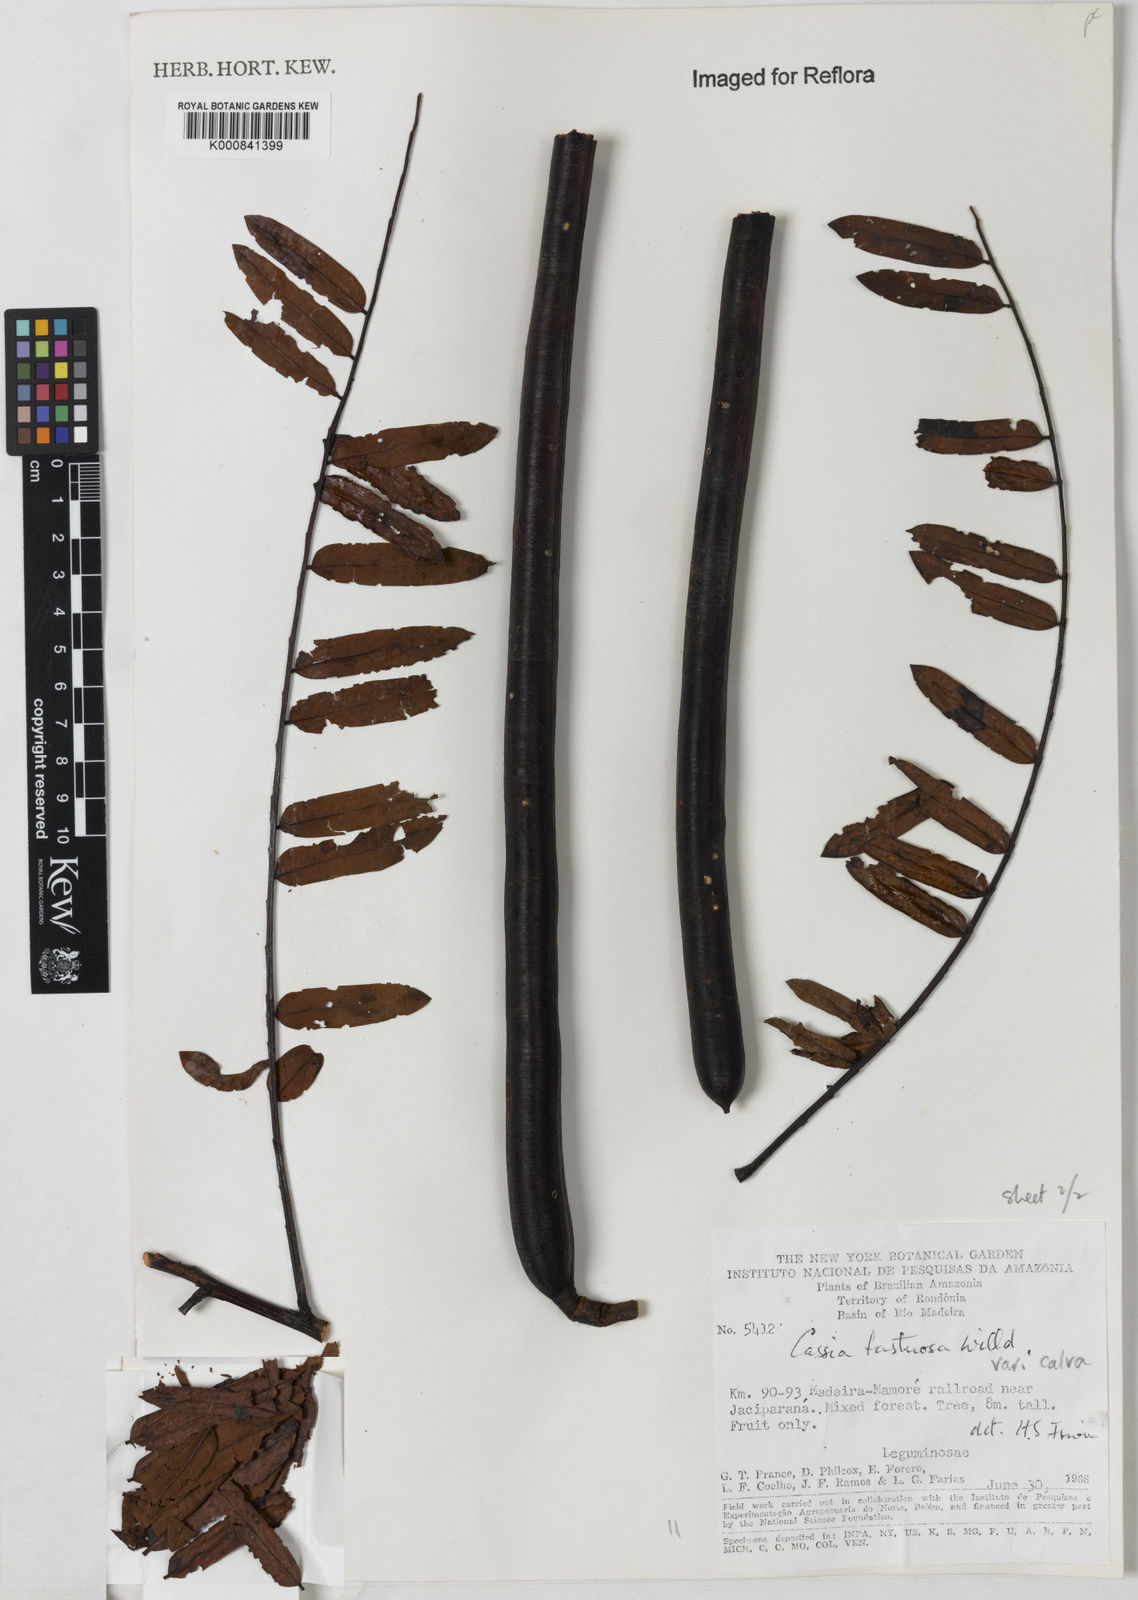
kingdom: Plantae
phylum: Tracheophyta
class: Magnoliopsida
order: Fabales
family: Fabaceae
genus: Cassia
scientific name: Cassia fastuosa
